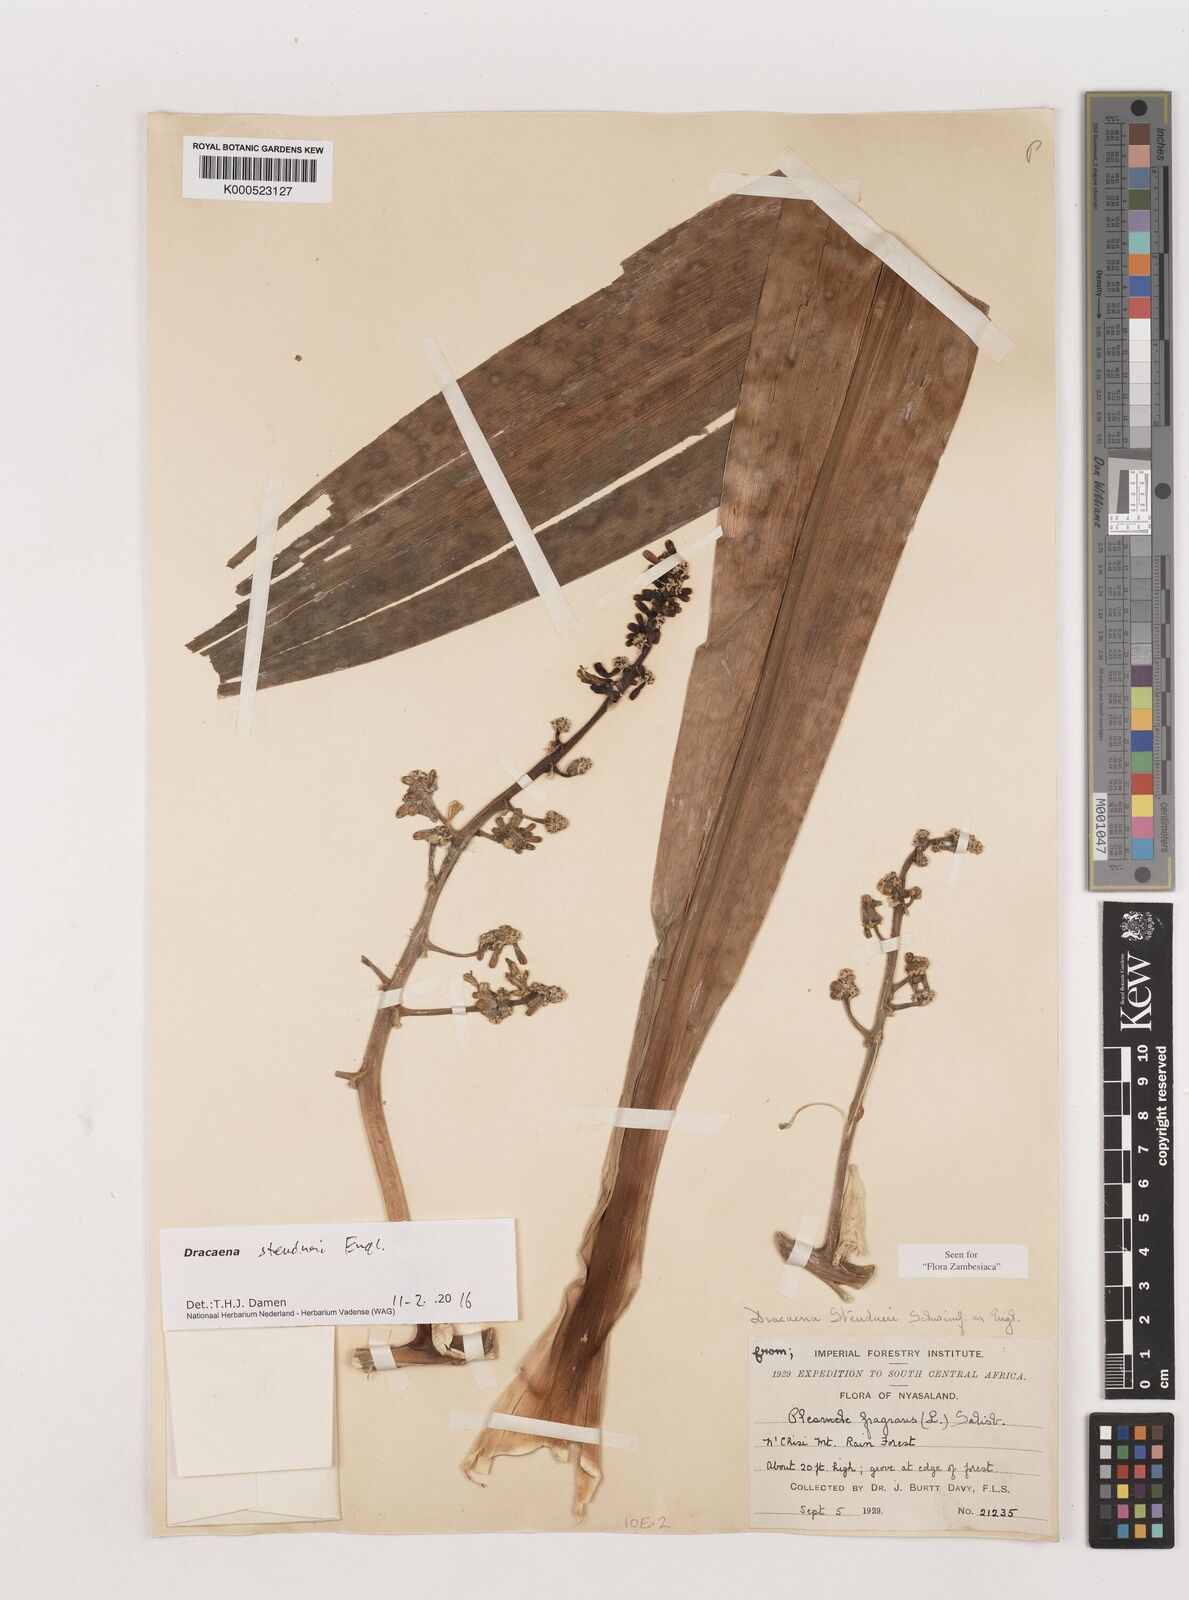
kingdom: Plantae
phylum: Tracheophyta
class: Liliopsida
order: Asparagales
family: Asparagaceae
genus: Dracaena
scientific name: Dracaena steudneri
